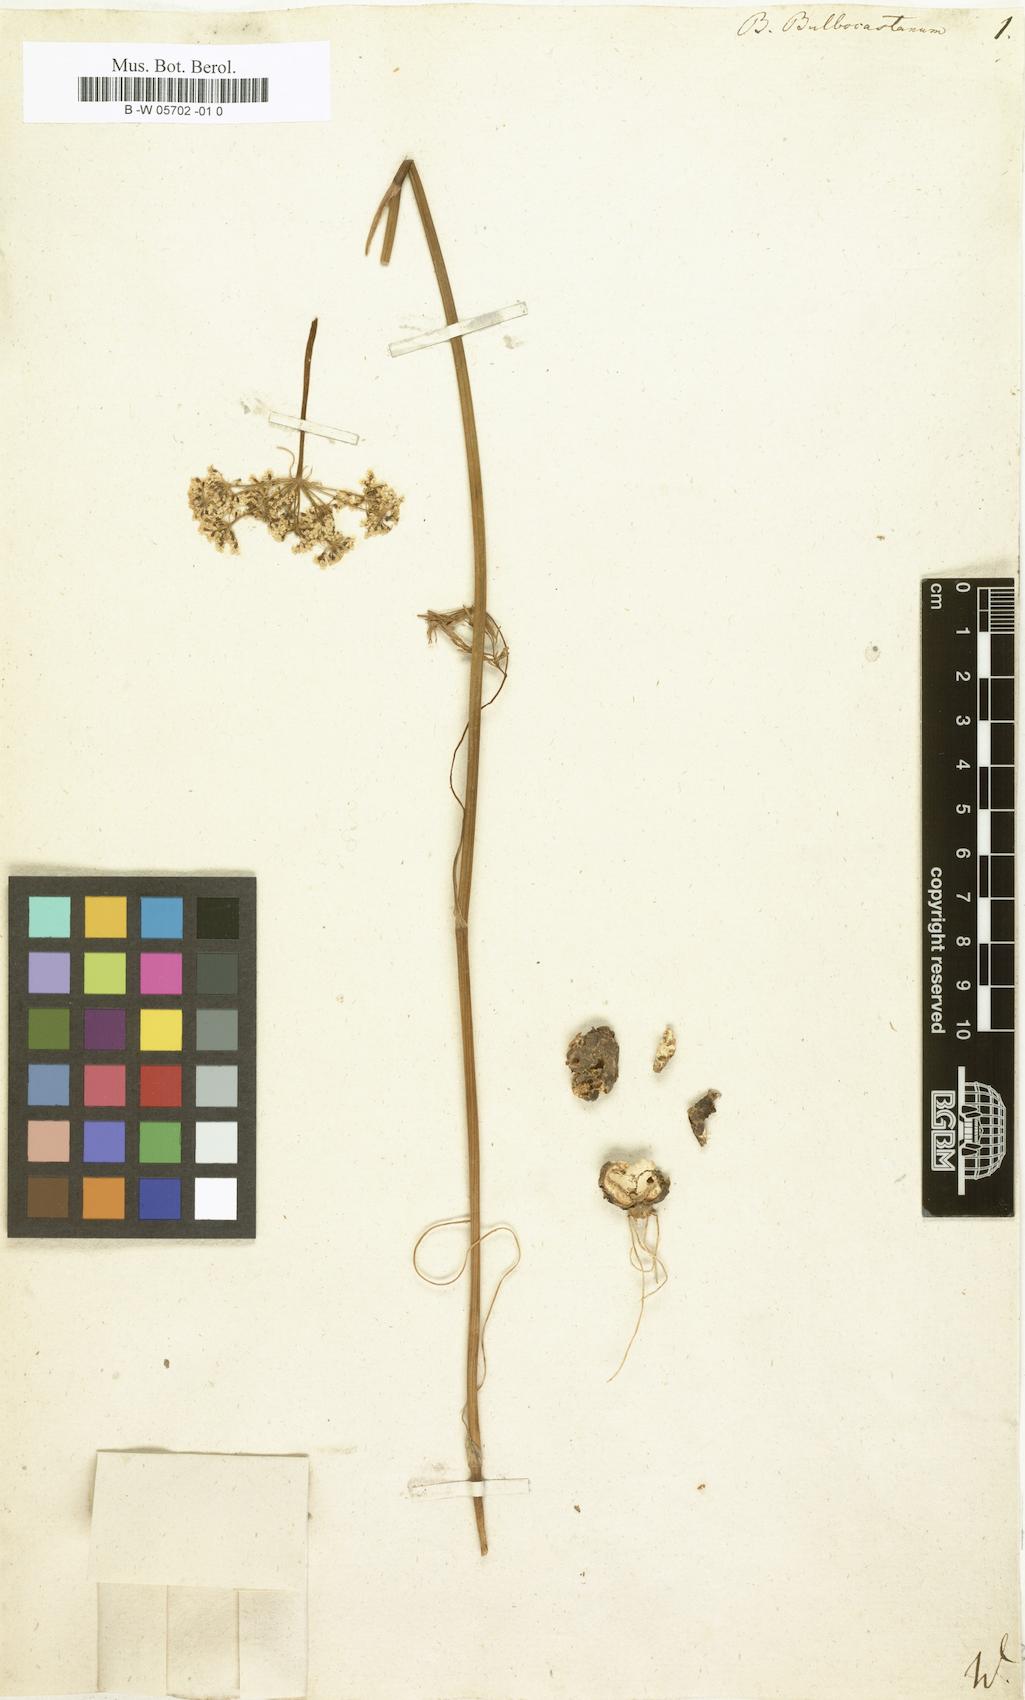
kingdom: Plantae
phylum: Tracheophyta
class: Magnoliopsida
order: Apiales
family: Apiaceae
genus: Bunium
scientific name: Bunium bulbocastanum
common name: Great pignut
